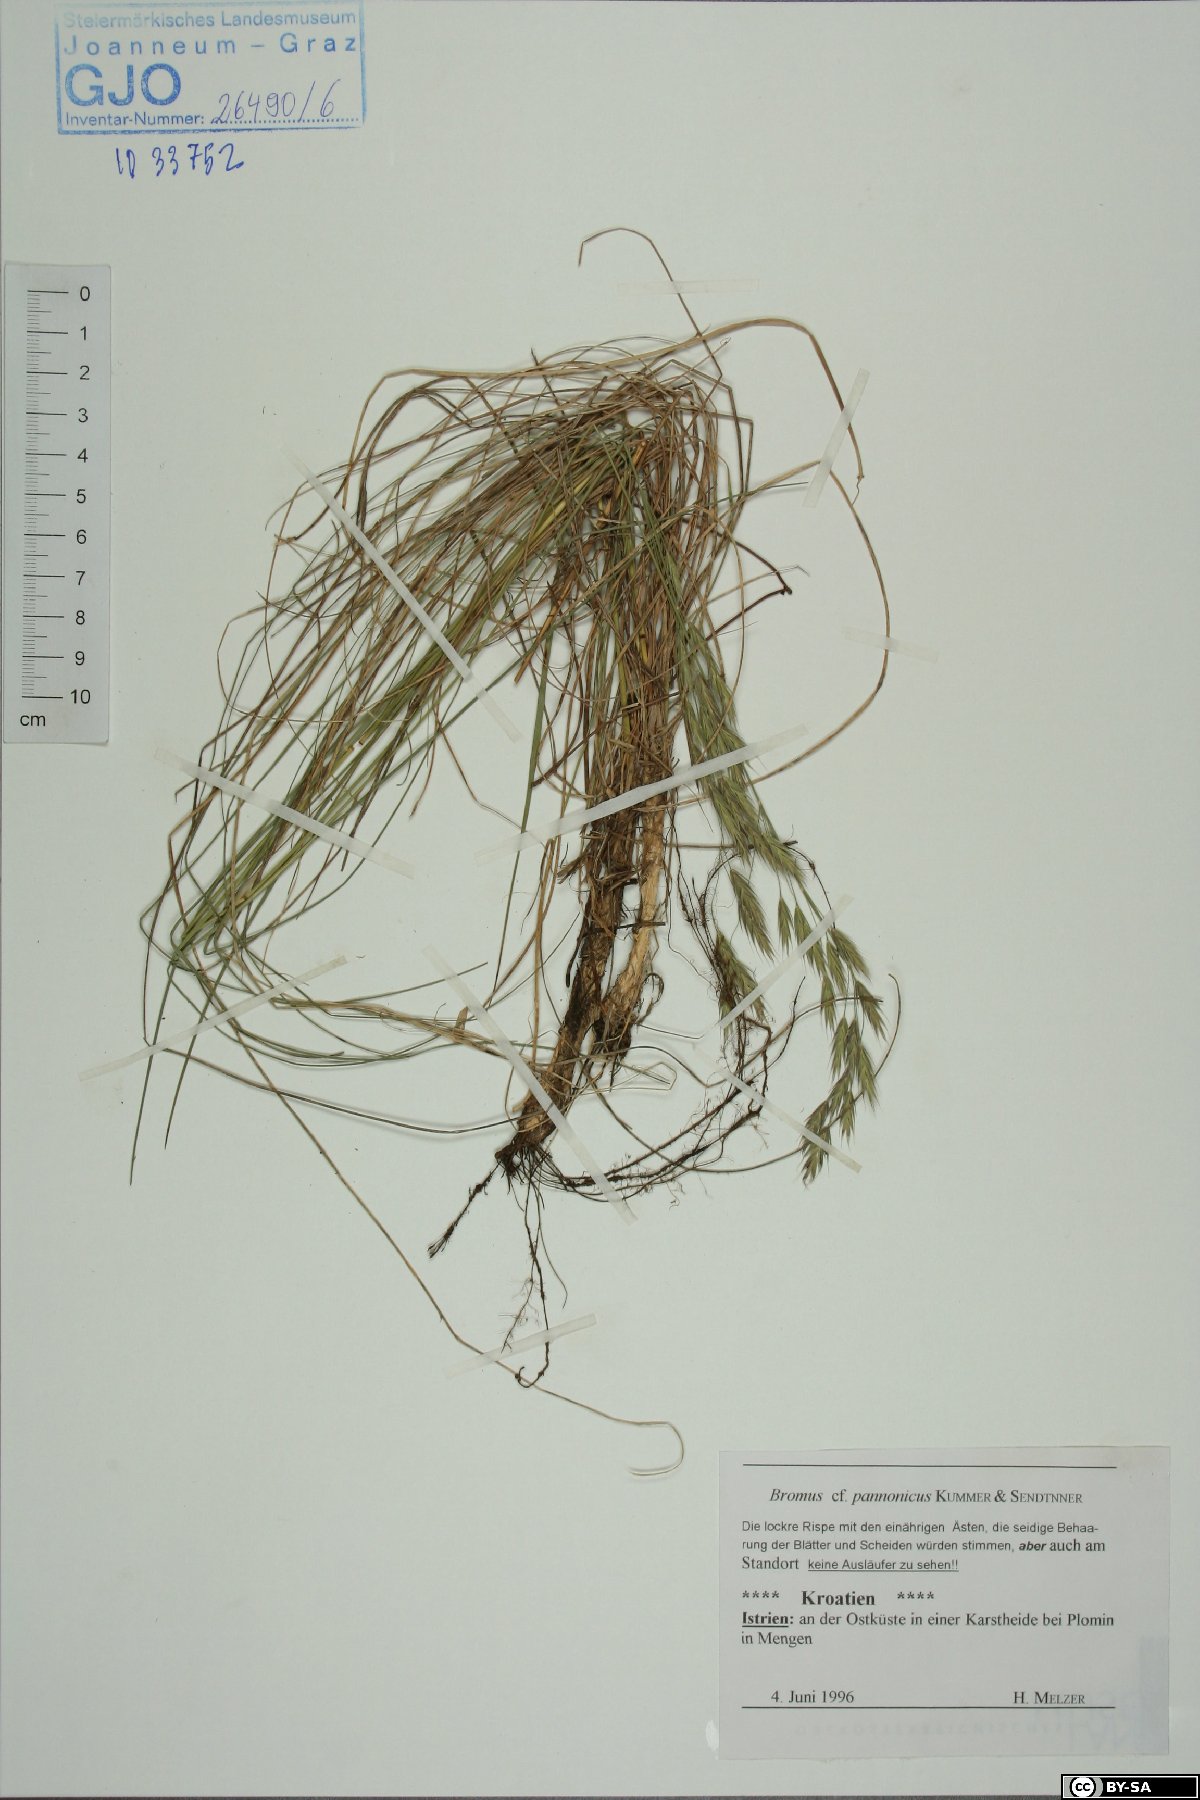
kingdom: Plantae
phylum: Tracheophyta
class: Liliopsida
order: Poales
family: Poaceae
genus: Bromus
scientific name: Bromus pannonicus
